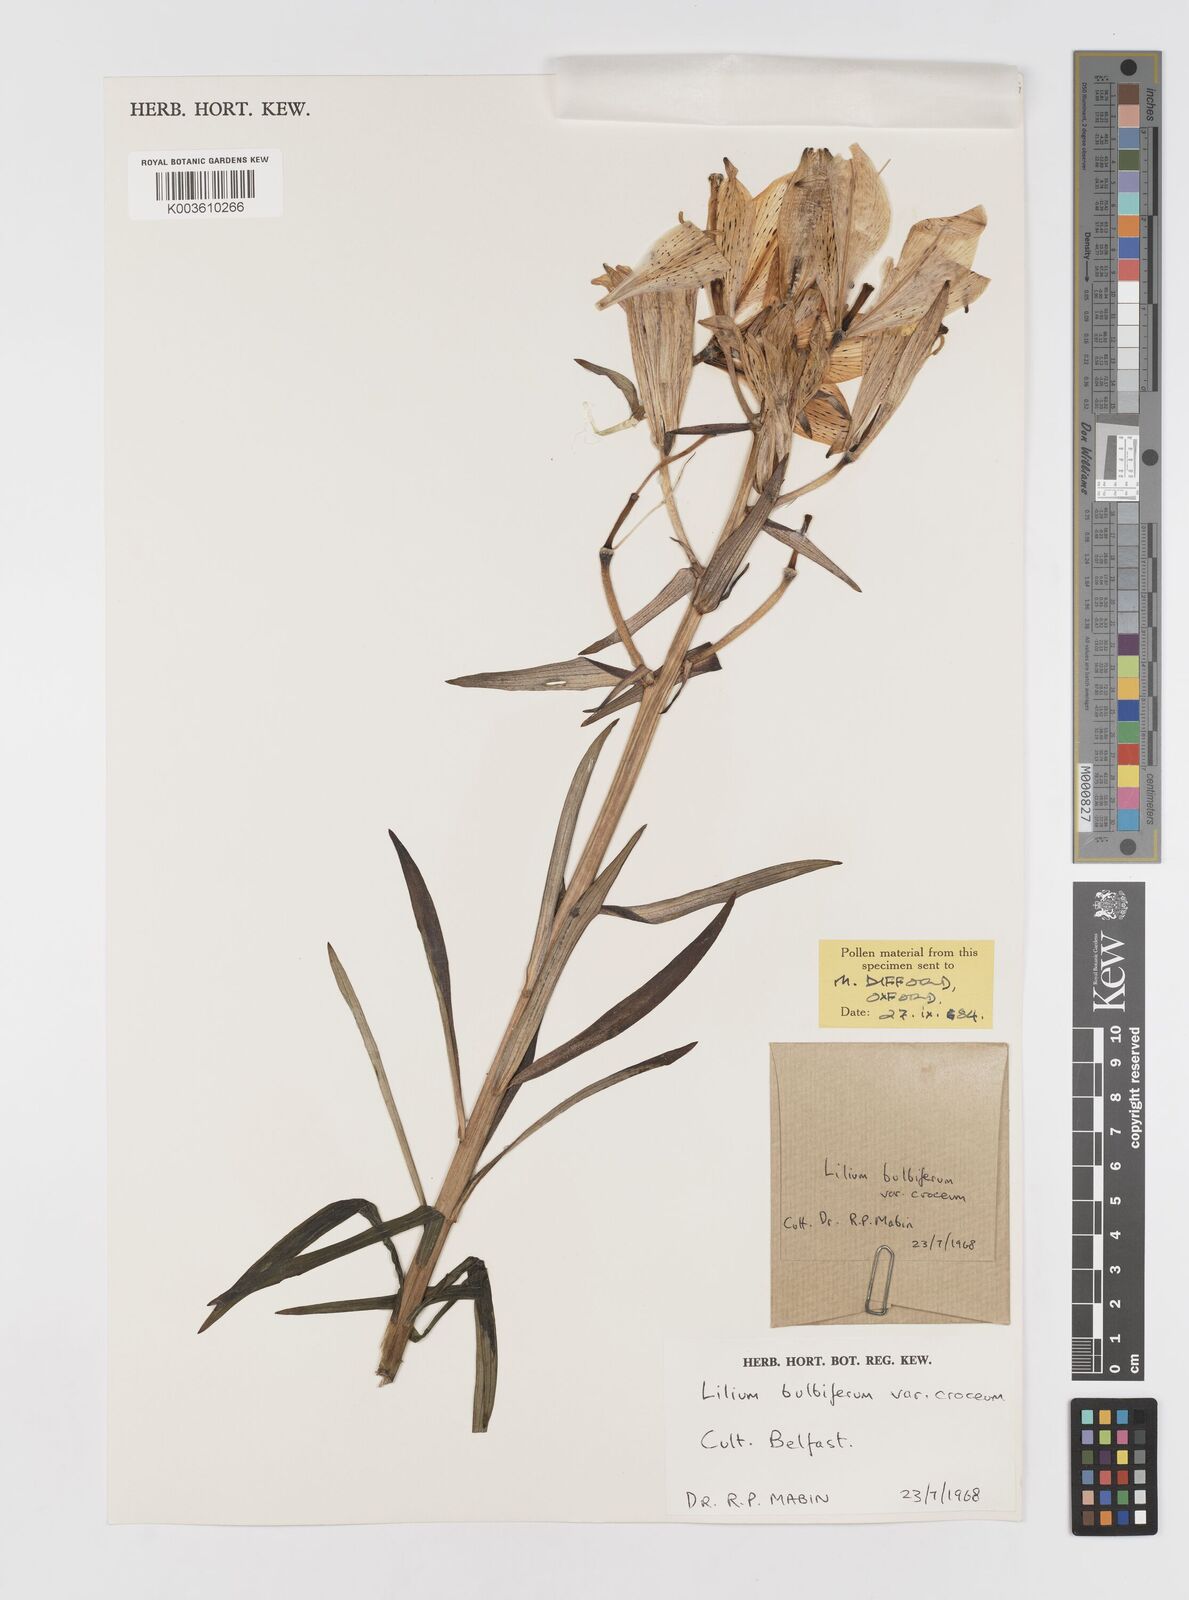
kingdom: Plantae
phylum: Tracheophyta
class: Liliopsida
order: Liliales
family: Liliaceae
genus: Lilium
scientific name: Lilium bulbiferum
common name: Orange lily
